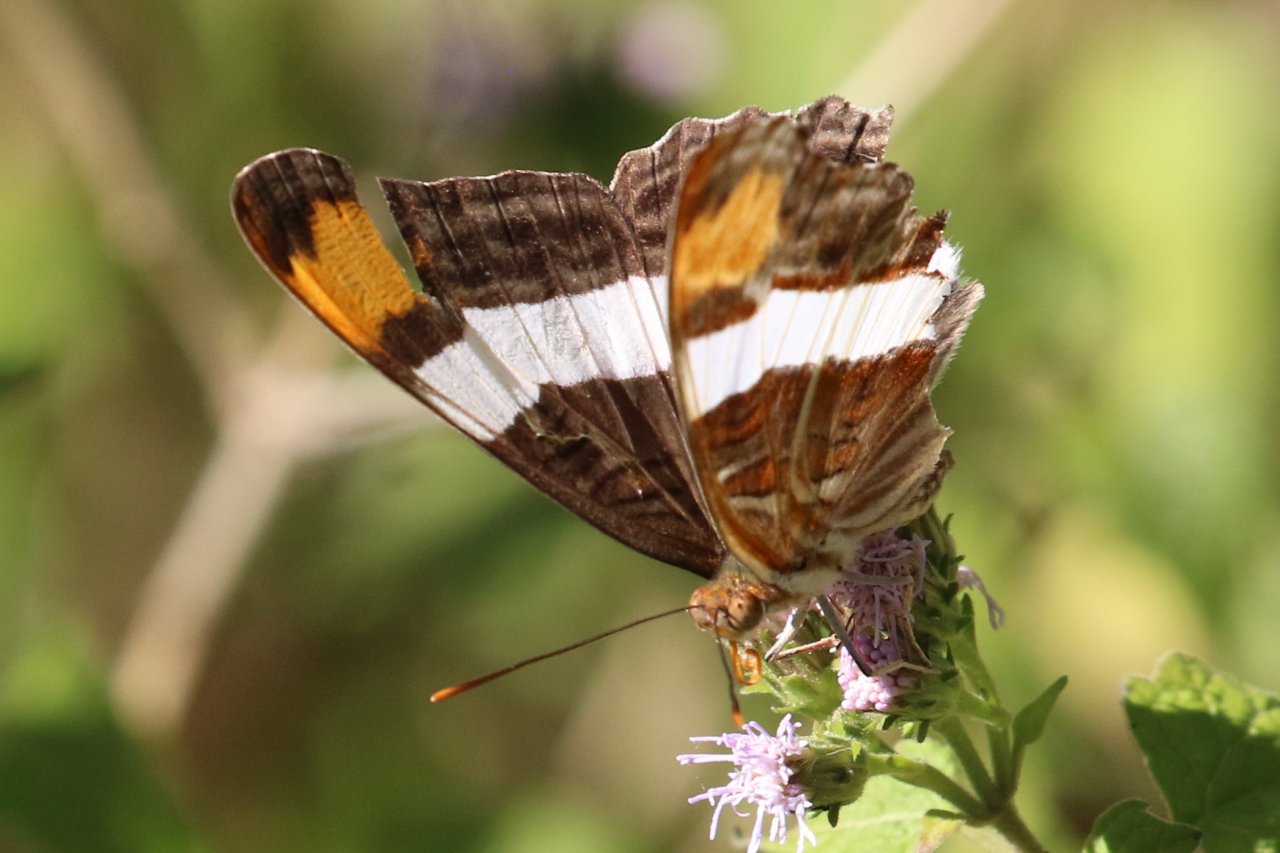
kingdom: Animalia
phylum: Arthropoda
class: Insecta
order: Lepidoptera
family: Nymphalidae
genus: Limenitis
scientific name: Limenitis fessonia
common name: Band-celled Sister
